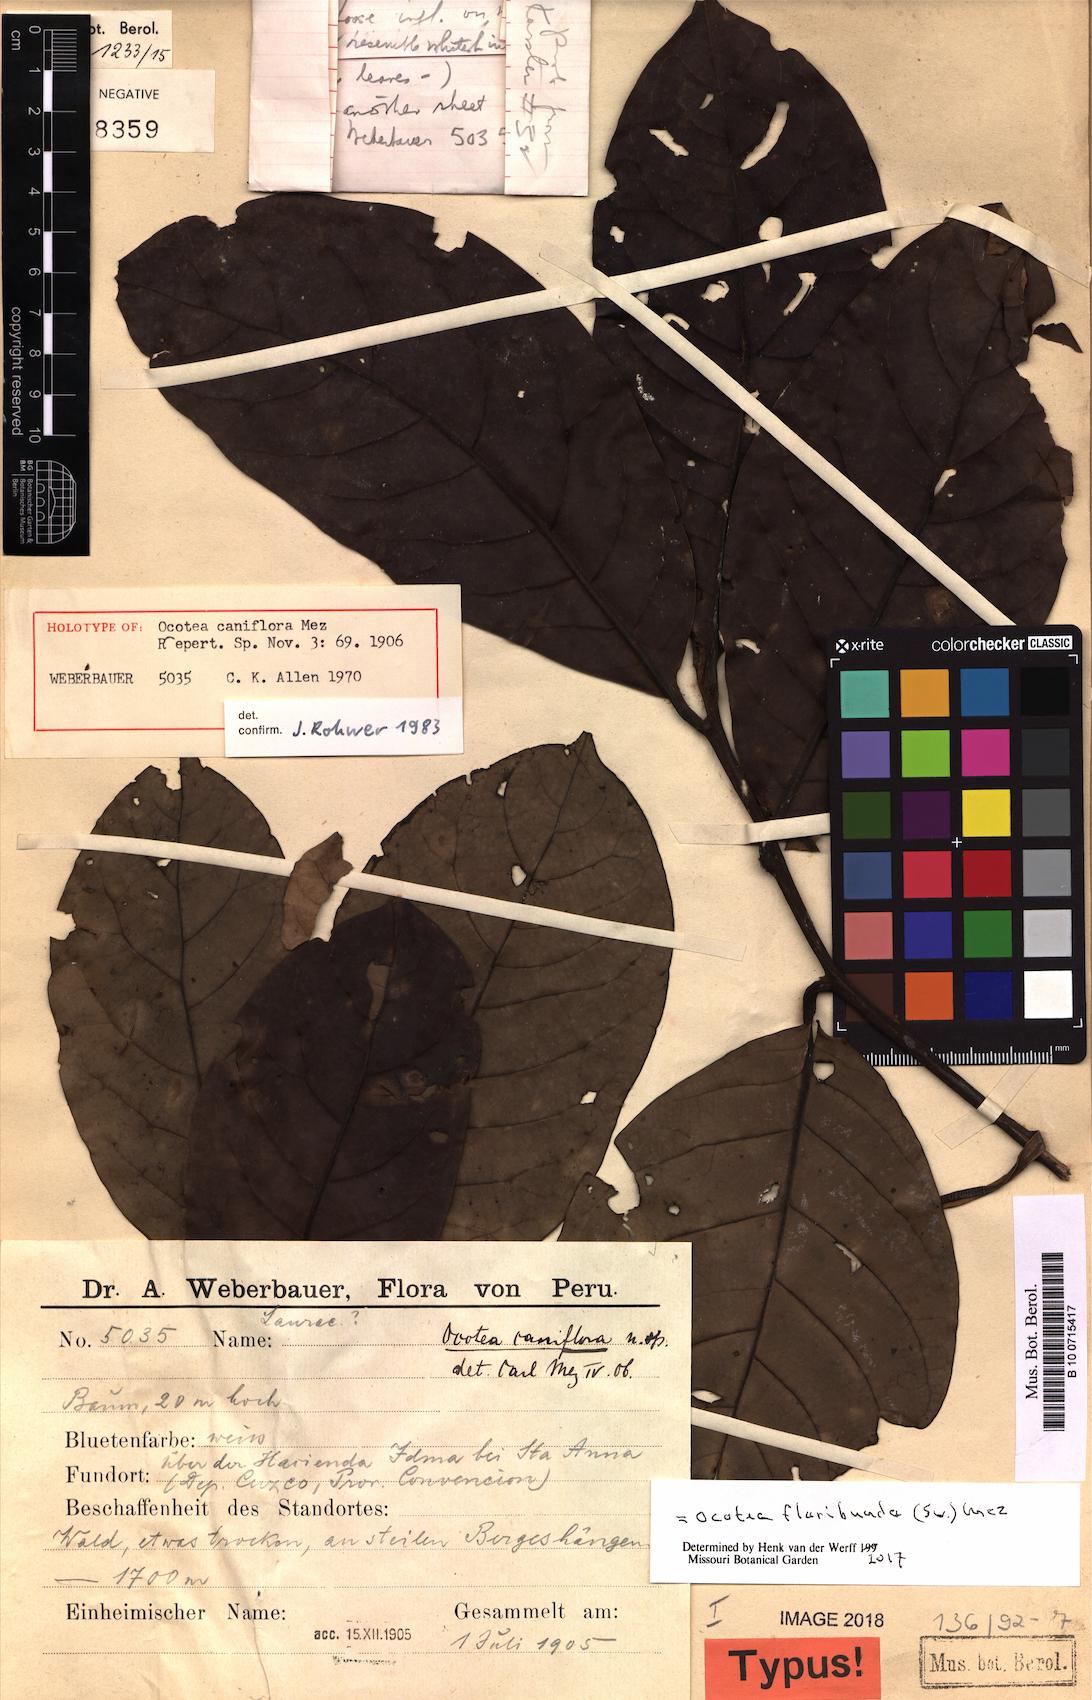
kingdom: Plantae
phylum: Tracheophyta
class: Magnoliopsida
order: Laurales
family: Lauraceae
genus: Ocotea
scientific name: Ocotea floribunda
